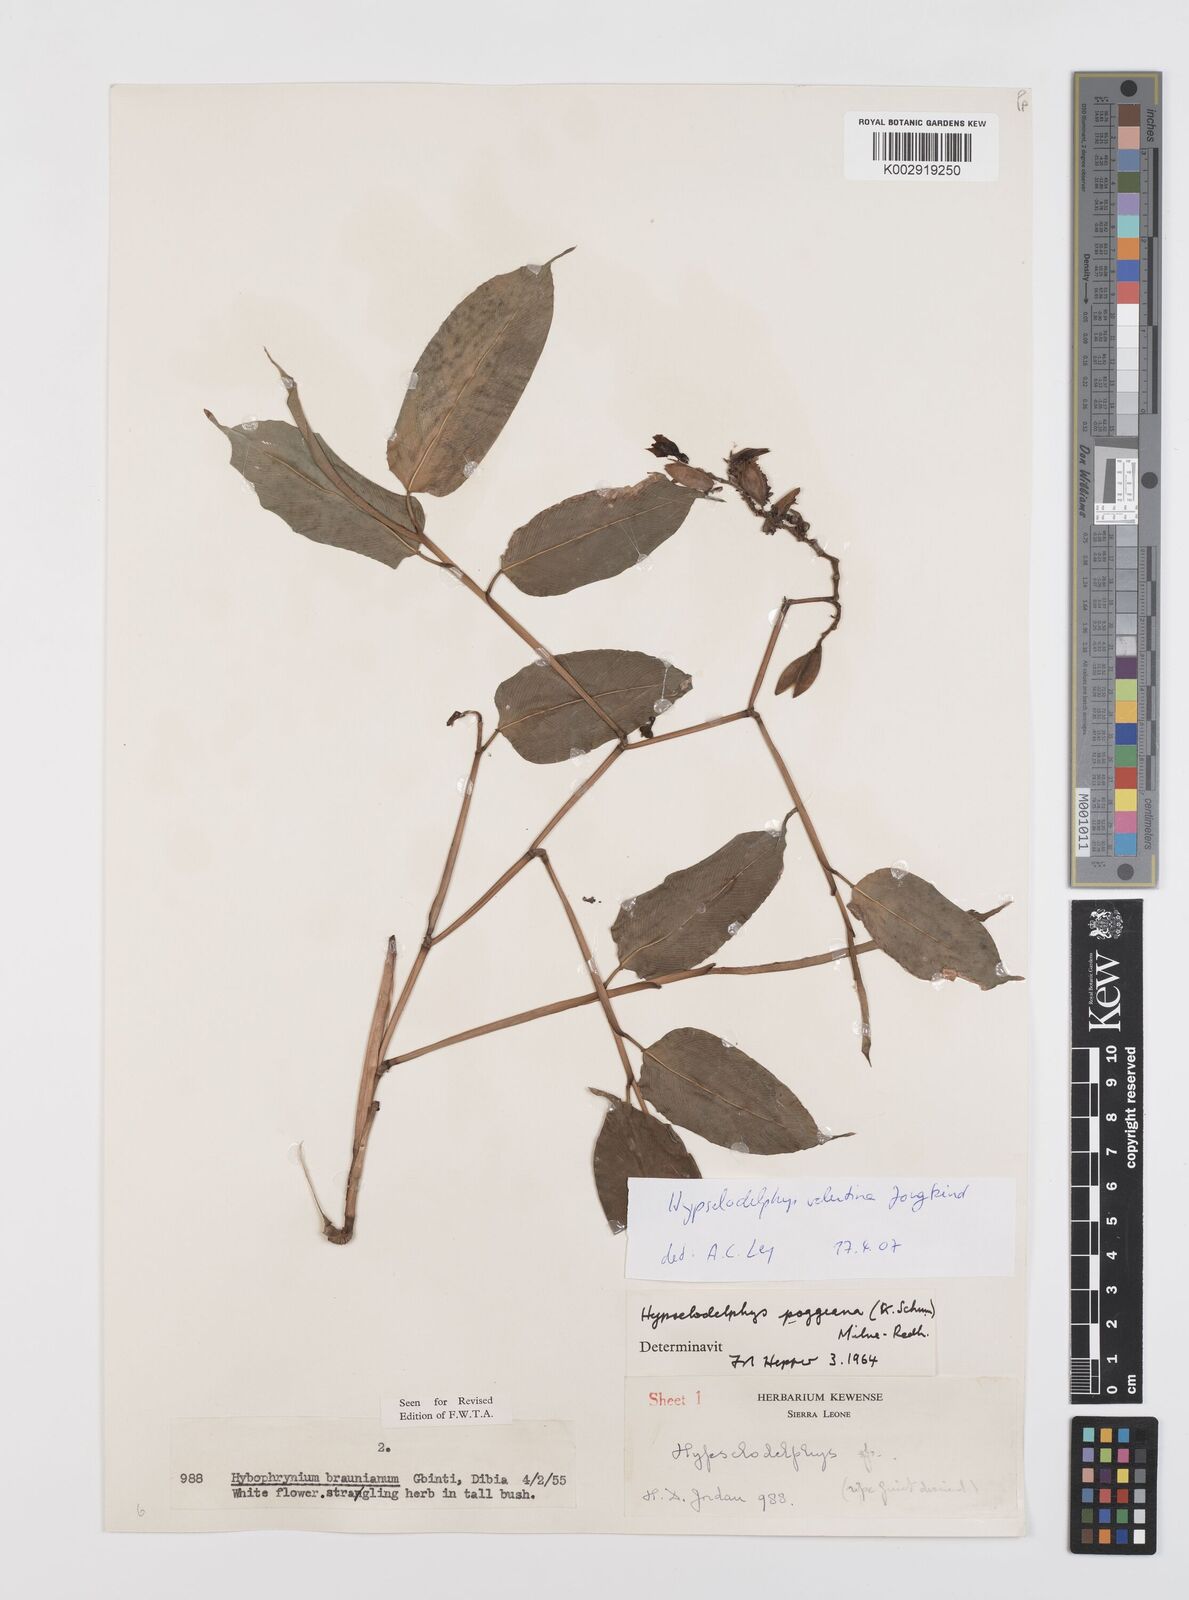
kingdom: Plantae
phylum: Tracheophyta
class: Liliopsida
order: Zingiberales
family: Marantaceae
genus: Hypselodelphys
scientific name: Hypselodelphys velutina
